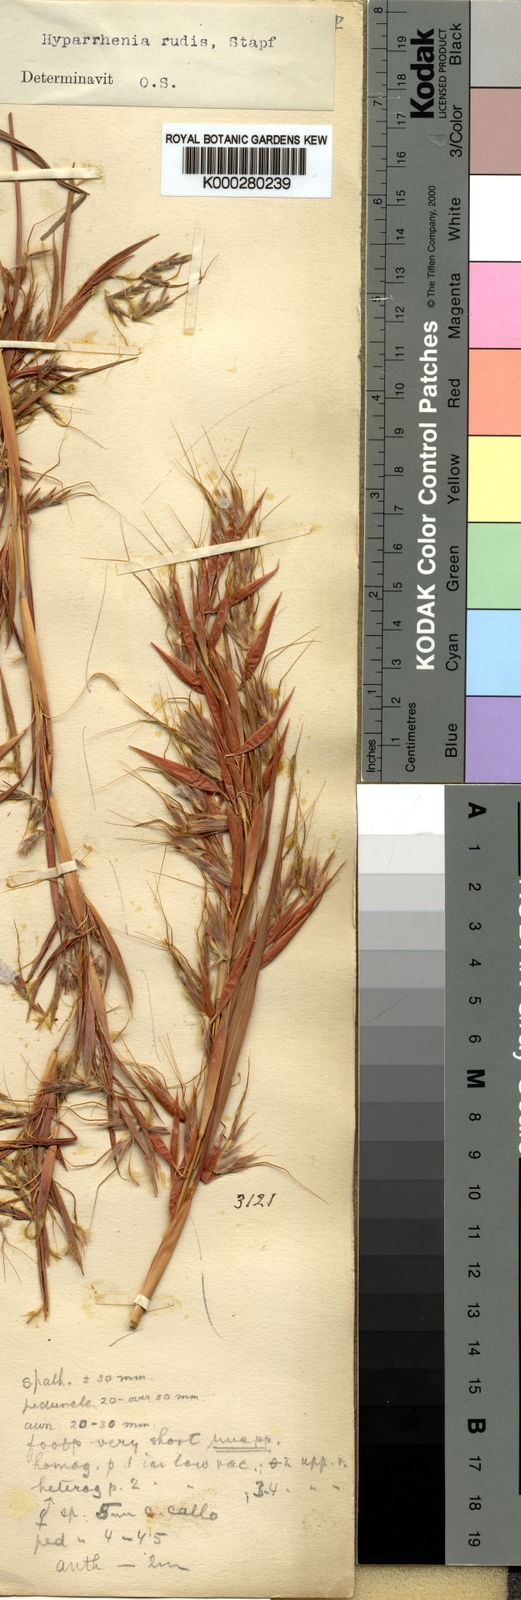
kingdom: Plantae
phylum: Tracheophyta
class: Liliopsida
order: Poales
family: Poaceae
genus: Hyparrhenia
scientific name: Hyparrhenia rudis
